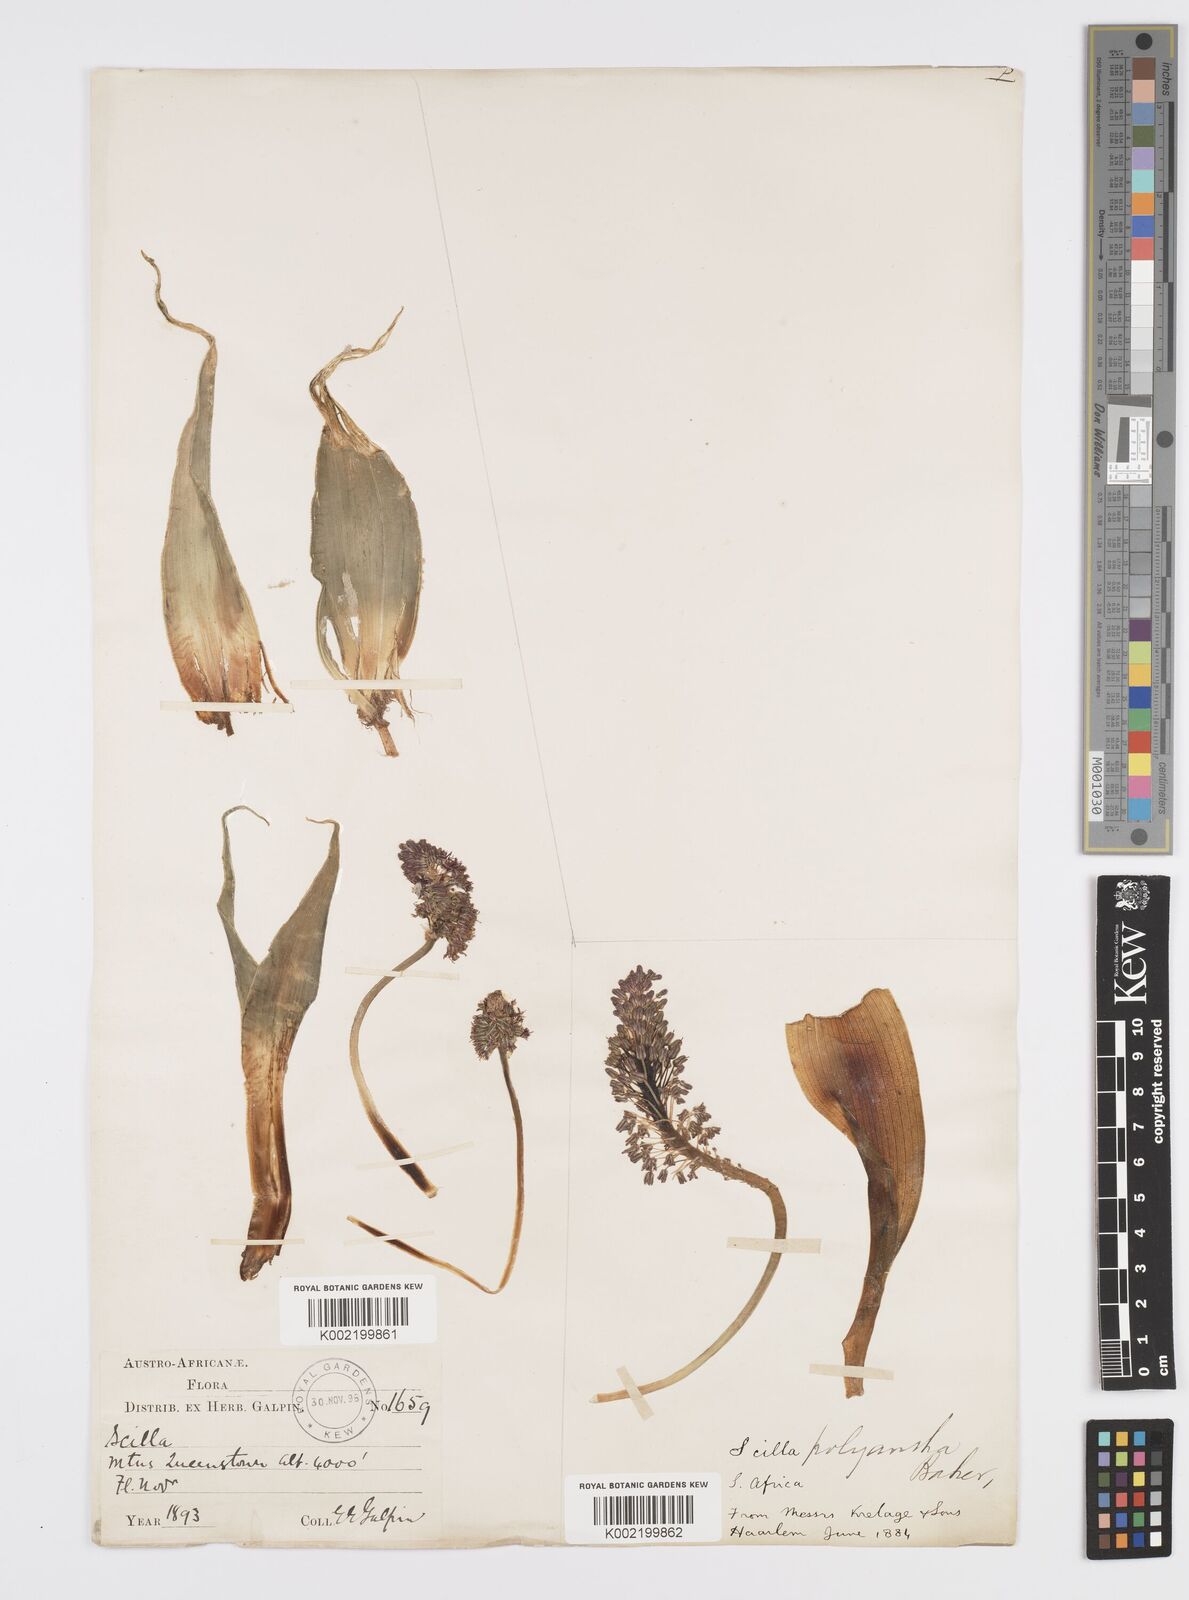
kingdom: Plantae
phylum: Tracheophyta
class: Liliopsida
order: Asparagales
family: Asparagaceae
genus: Ledebouria
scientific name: Ledebouria floribunda
